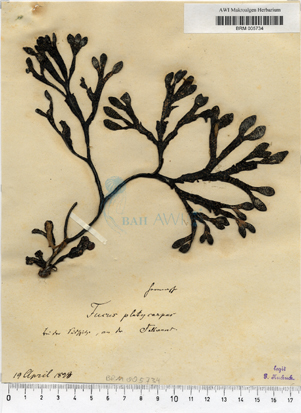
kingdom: Chromista
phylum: Ochrophyta
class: Phaeophyceae
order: Fucales
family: Fucaceae
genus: Fucus
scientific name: Fucus spiralis
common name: Spiral wrack
